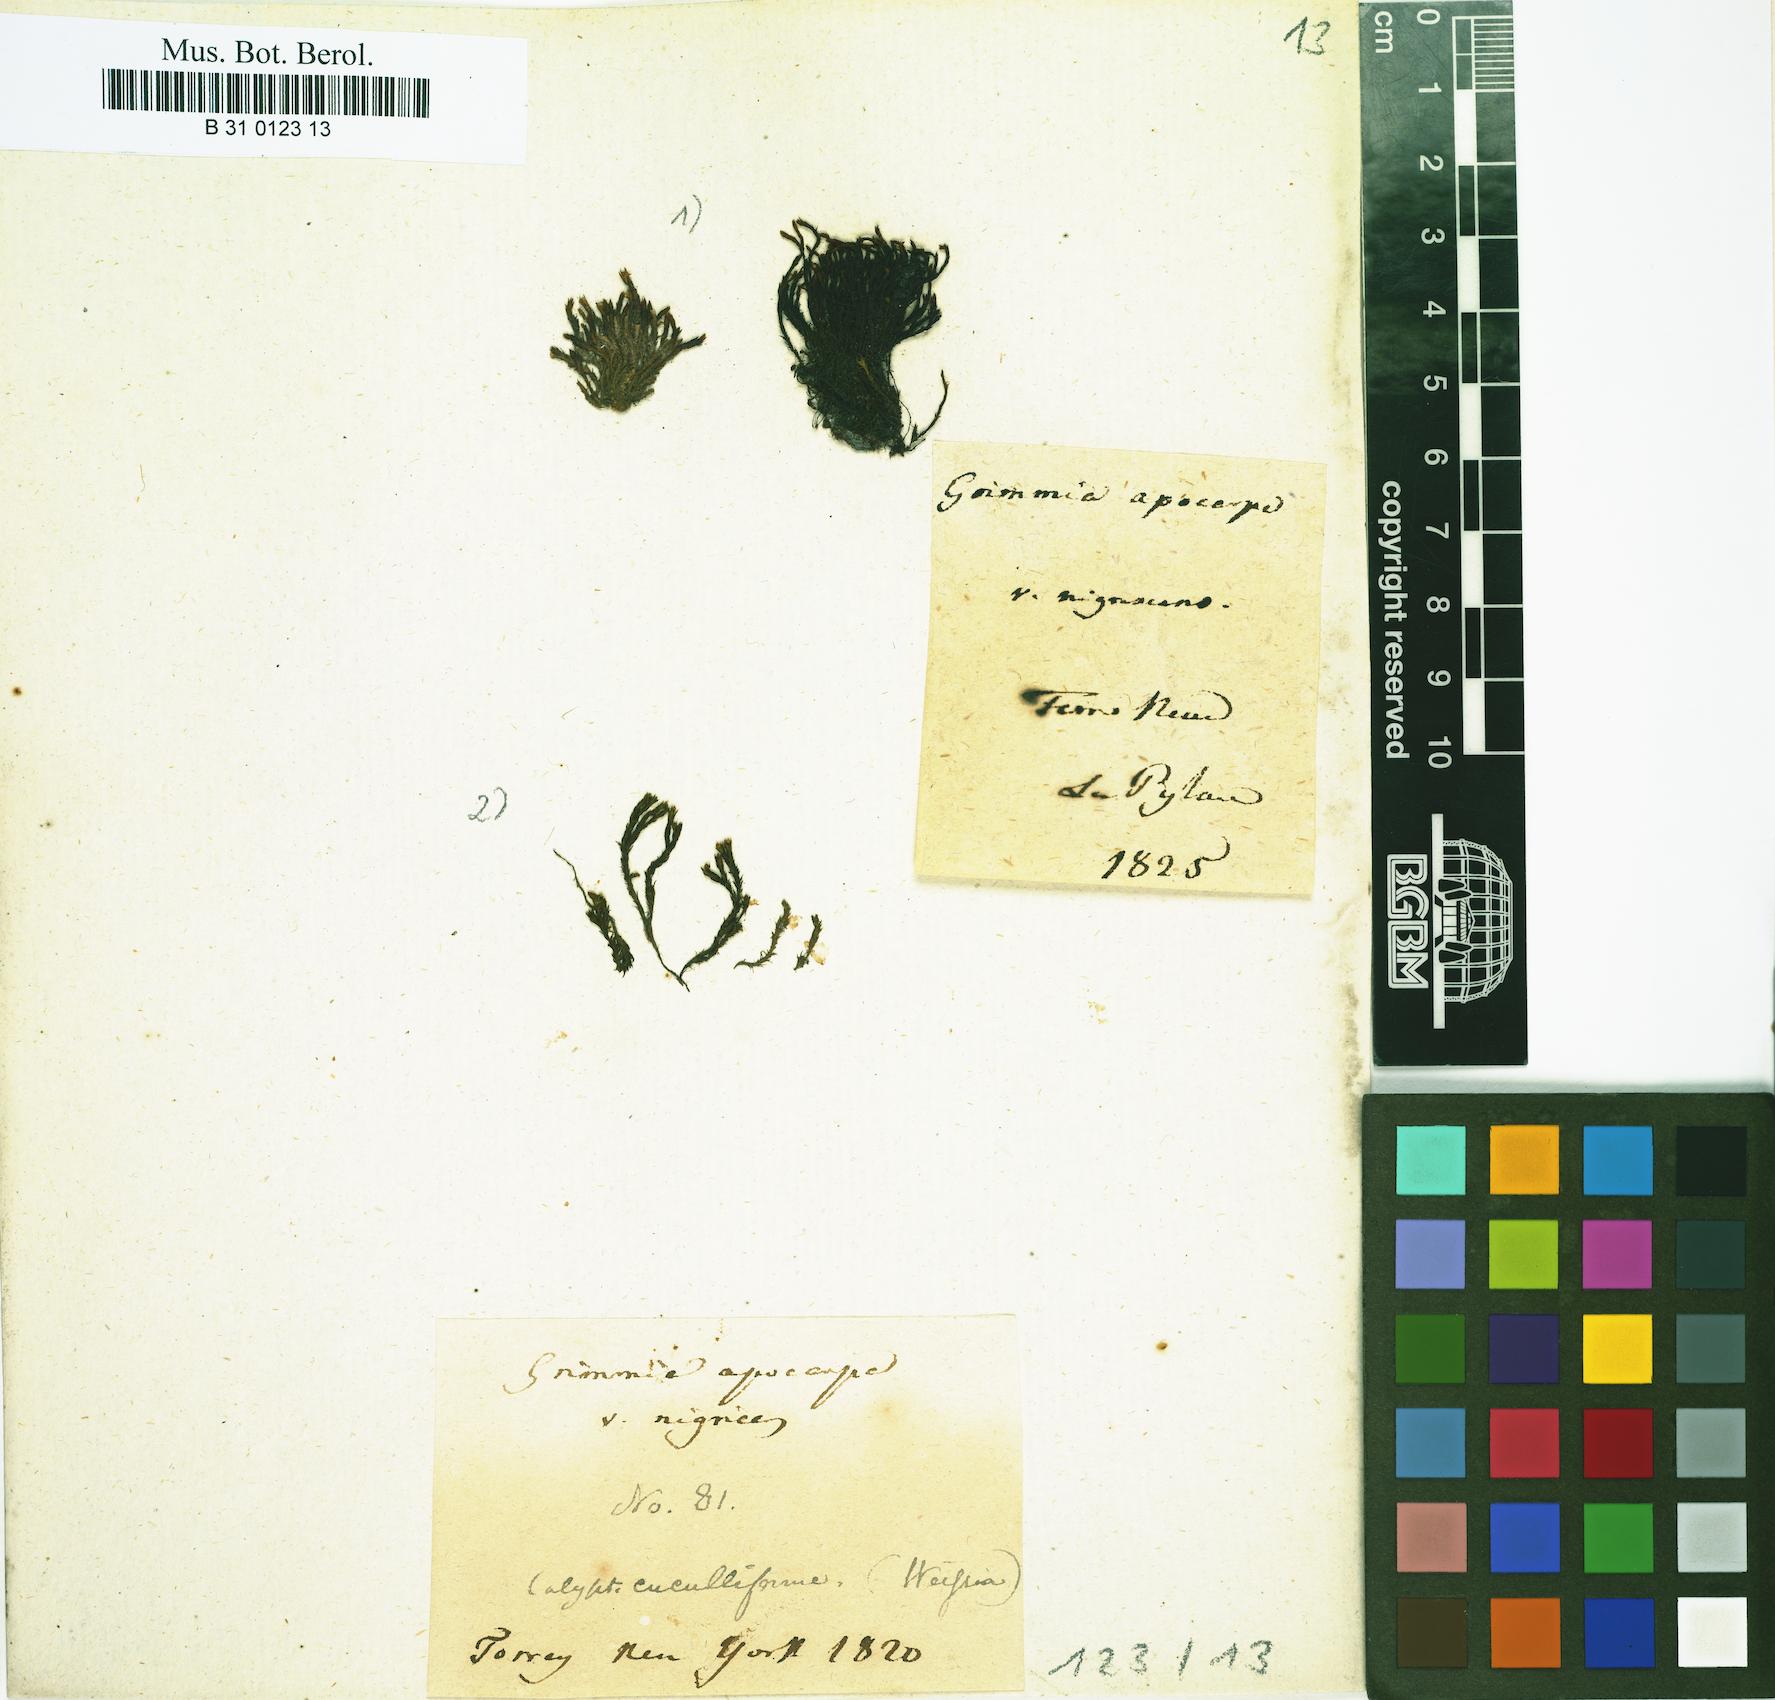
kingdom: Plantae
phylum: Bryophyta
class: Bryopsida
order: Grimmiales
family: Grimmiaceae
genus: Schistidium
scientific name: Schistidium apocarpum
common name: Radiate bloom moss
